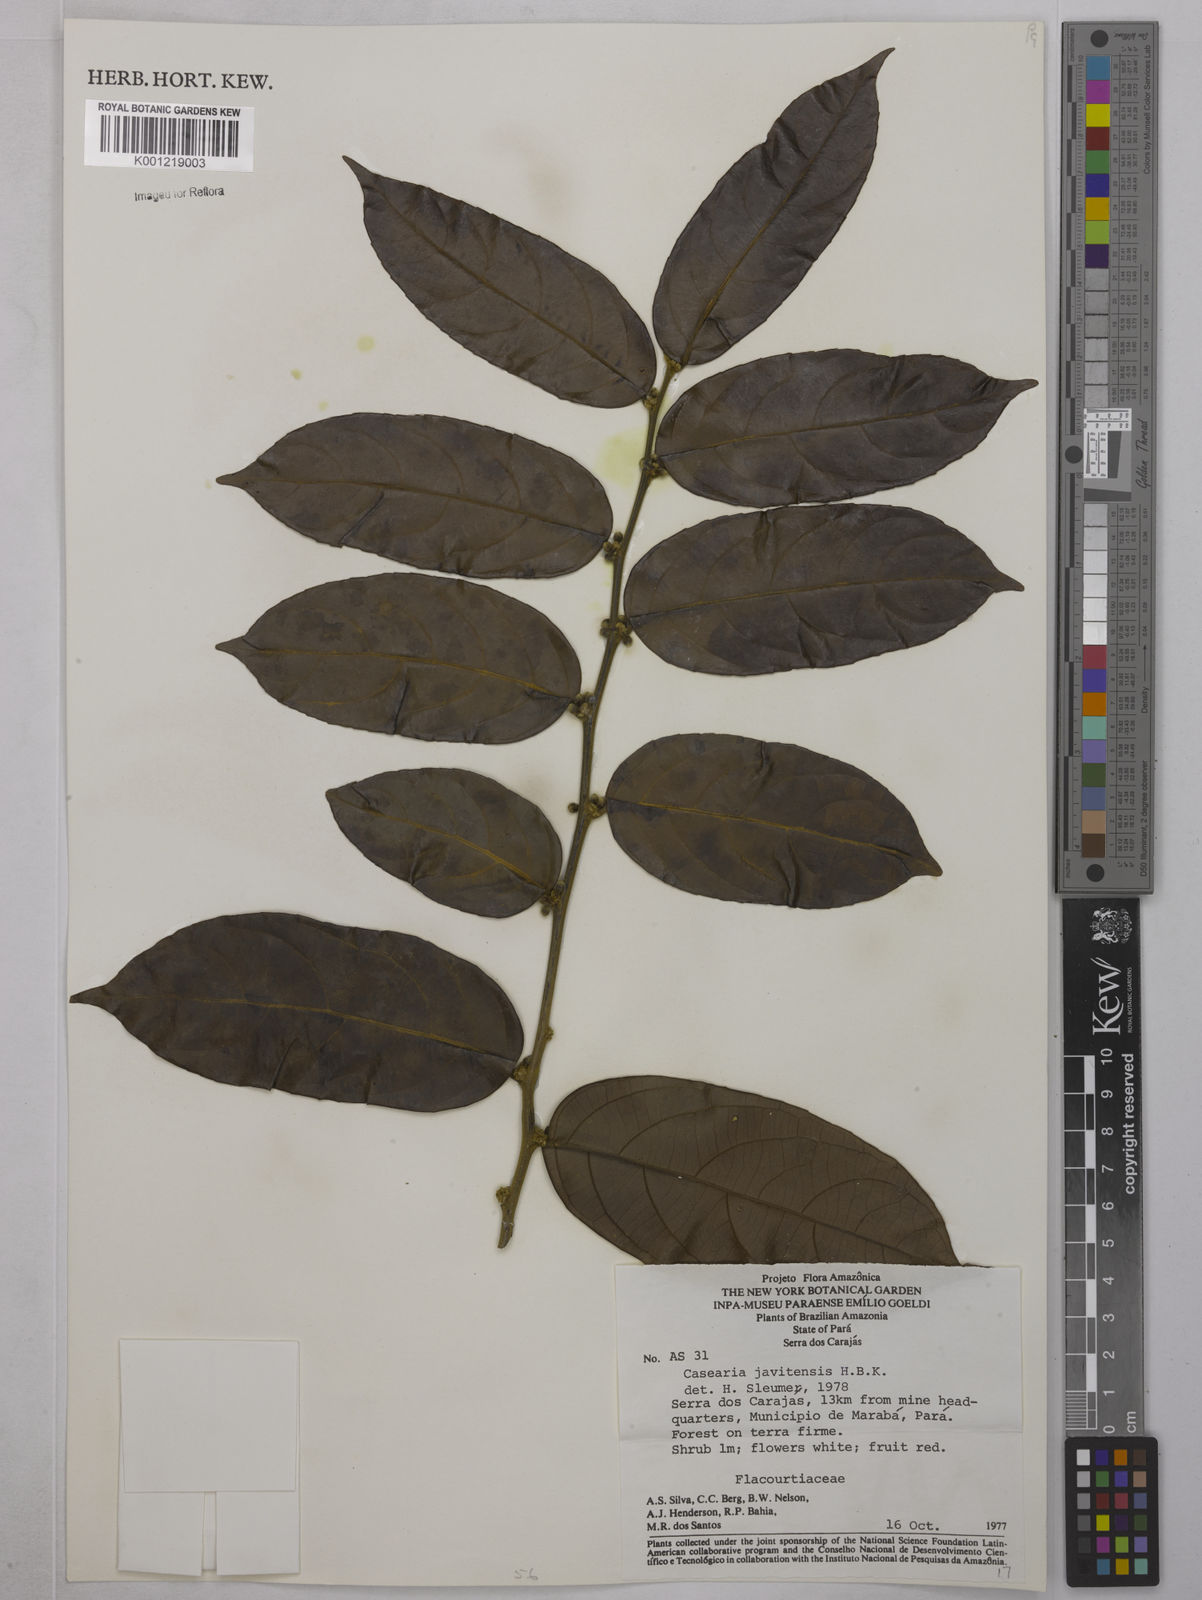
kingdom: Plantae
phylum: Tracheophyta
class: Magnoliopsida
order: Malpighiales
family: Salicaceae
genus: Piparea
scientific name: Piparea multiflora
